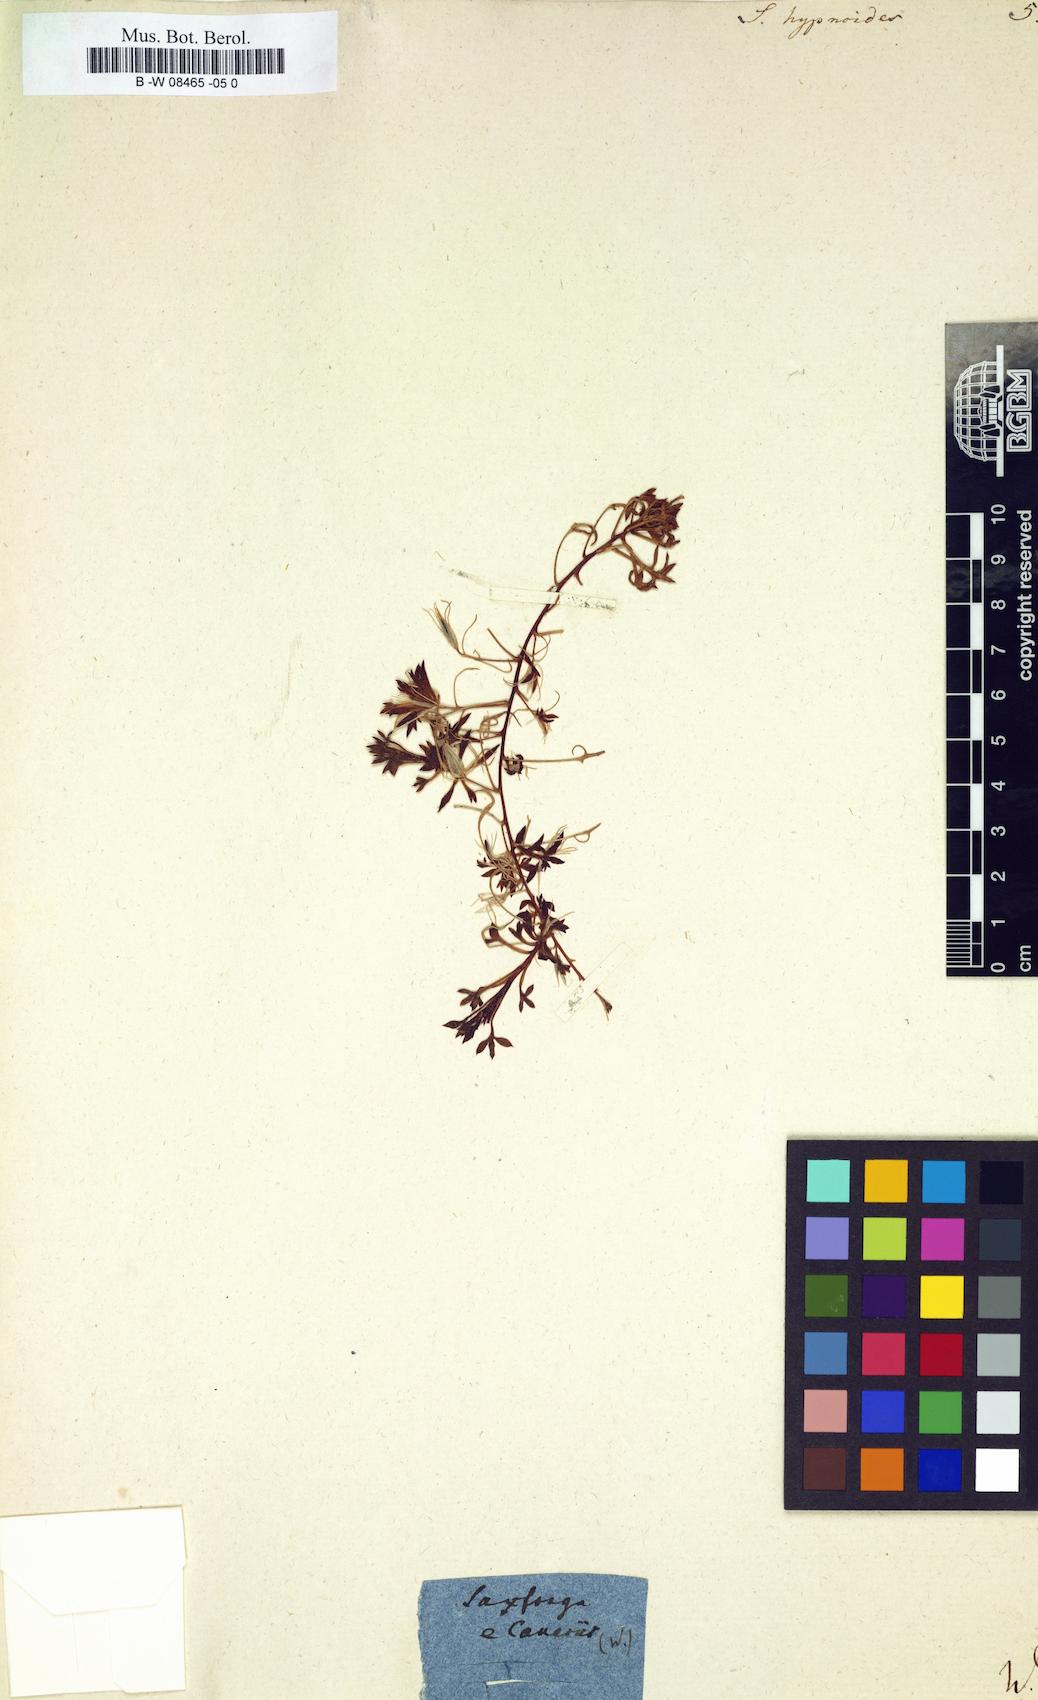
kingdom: Plantae
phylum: Tracheophyta
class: Magnoliopsida
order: Saxifragales
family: Saxifragaceae
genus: Saxifraga
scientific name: Saxifraga hypnoides
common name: Mossy saxifrage
